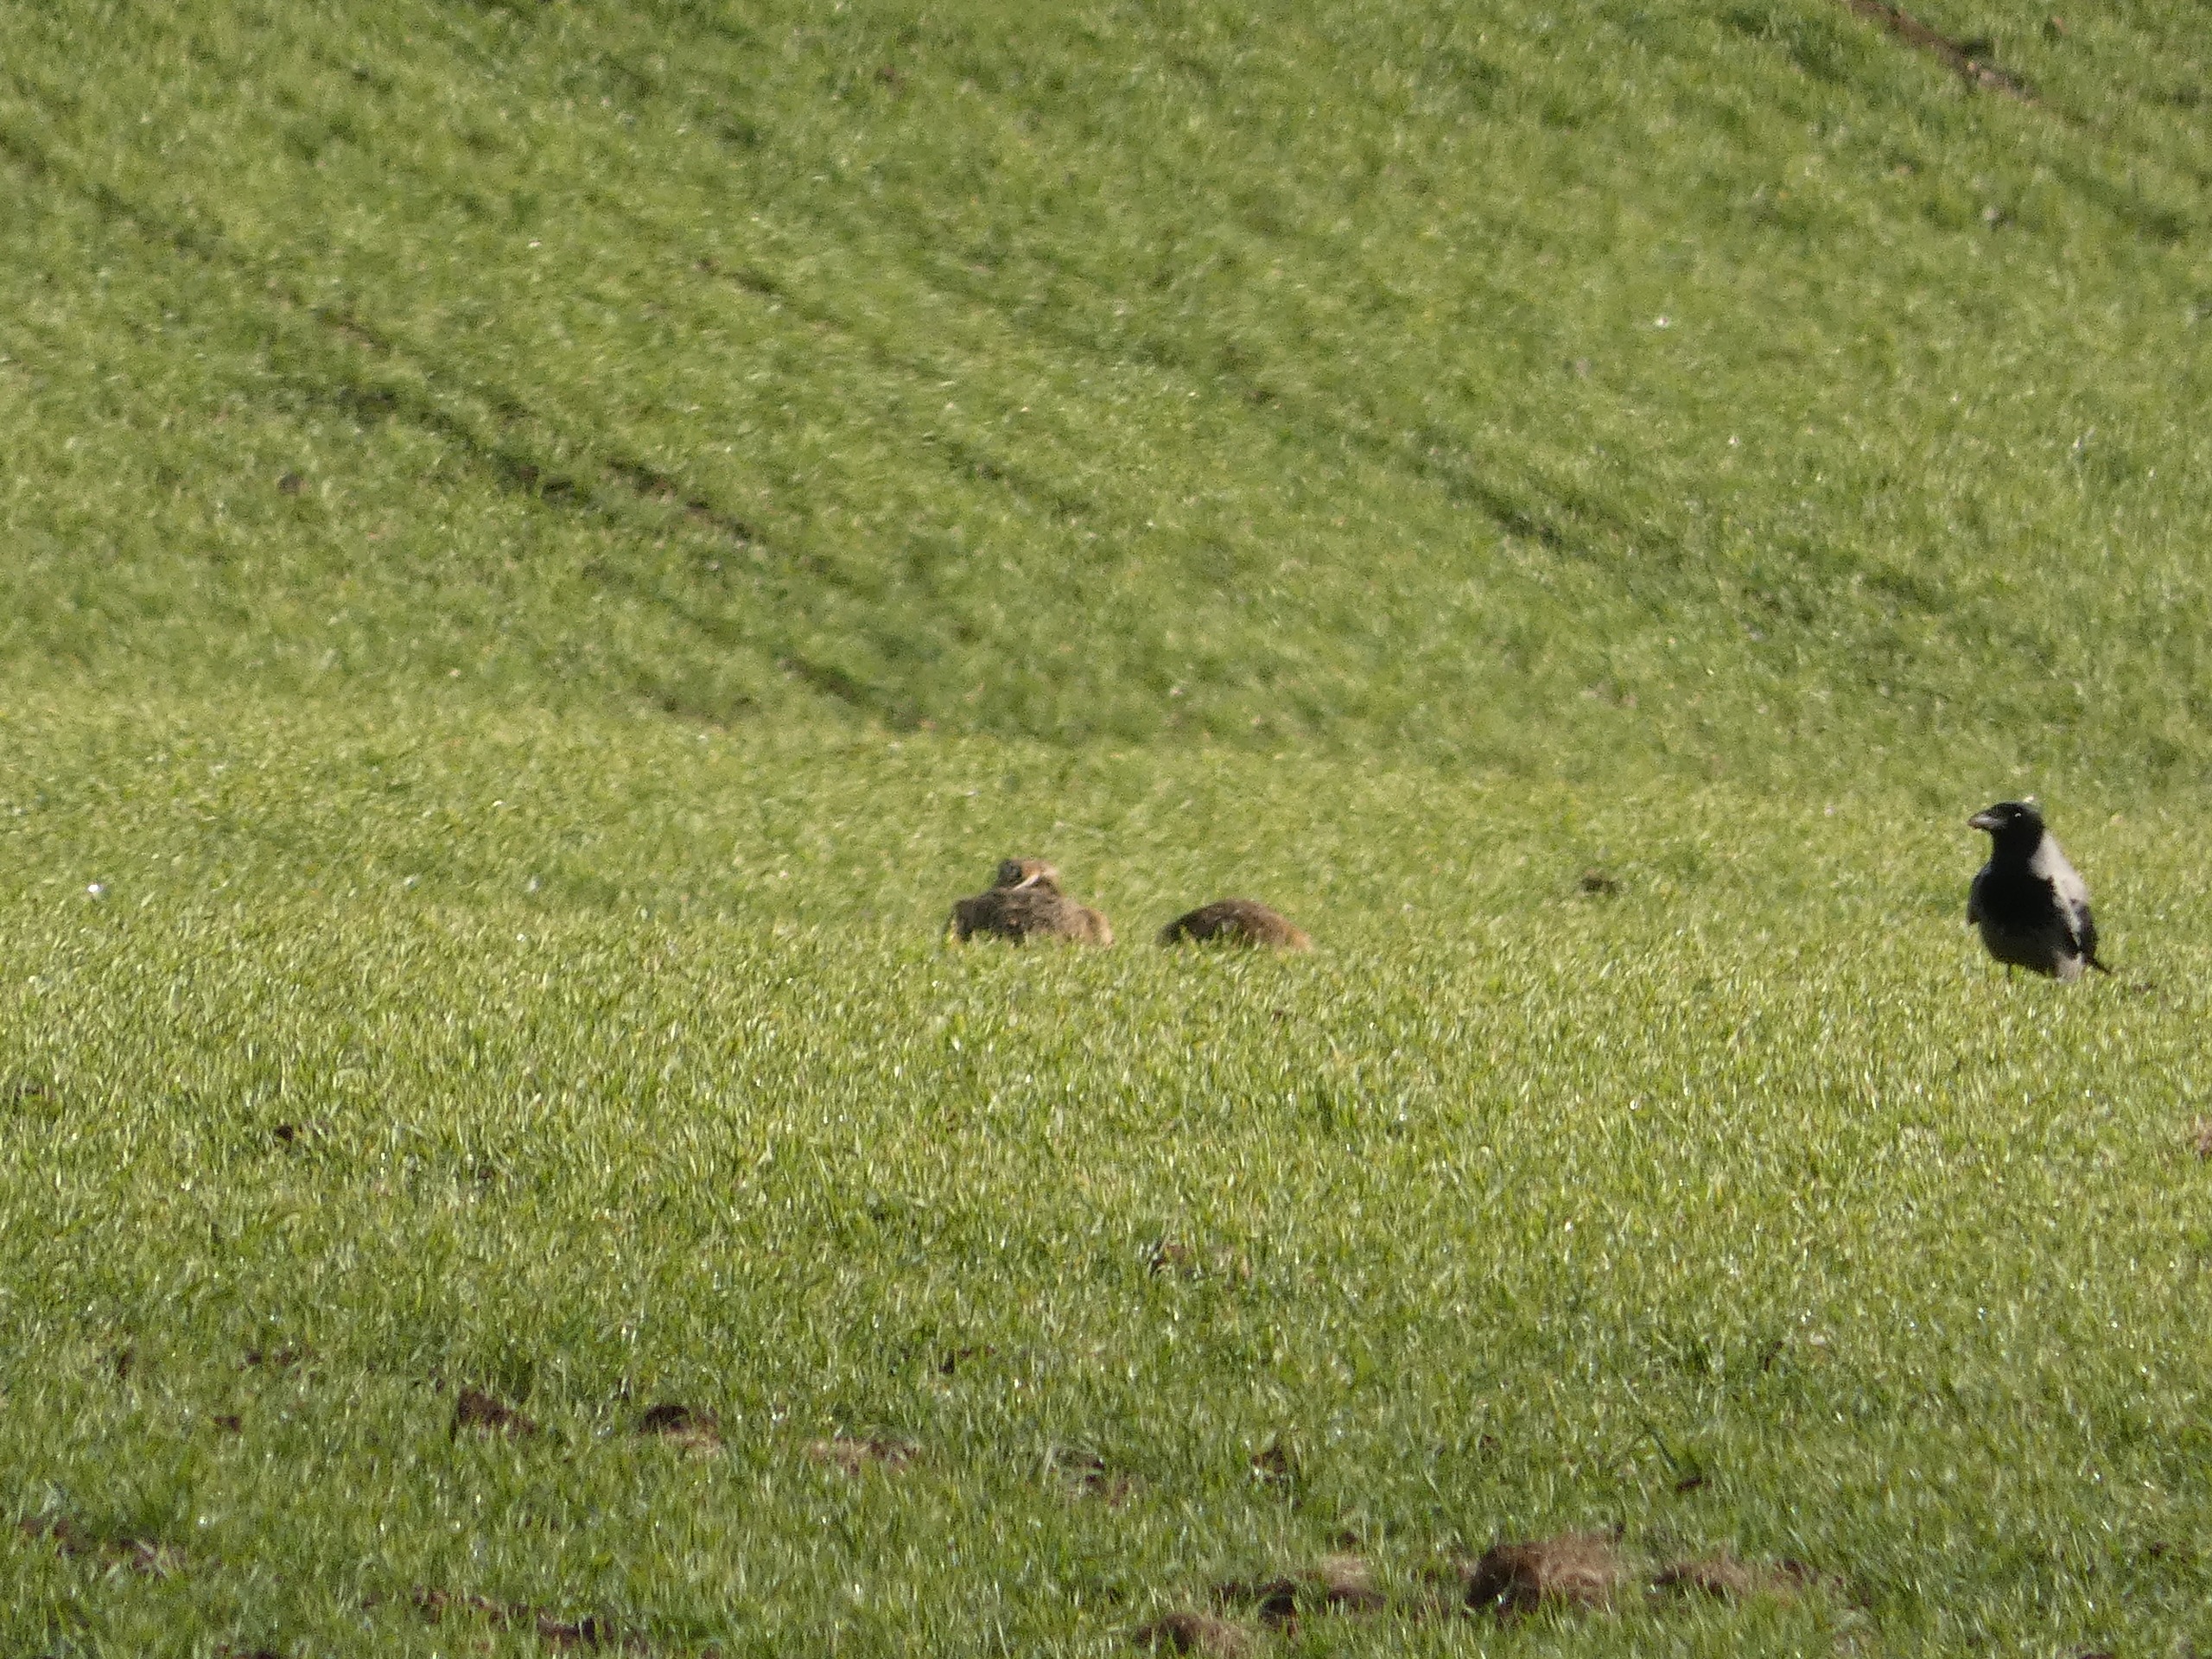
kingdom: Animalia
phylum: Chordata
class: Aves
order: Passeriformes
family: Corvidae
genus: Corvus
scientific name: Corvus cornix
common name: Gråkrage
